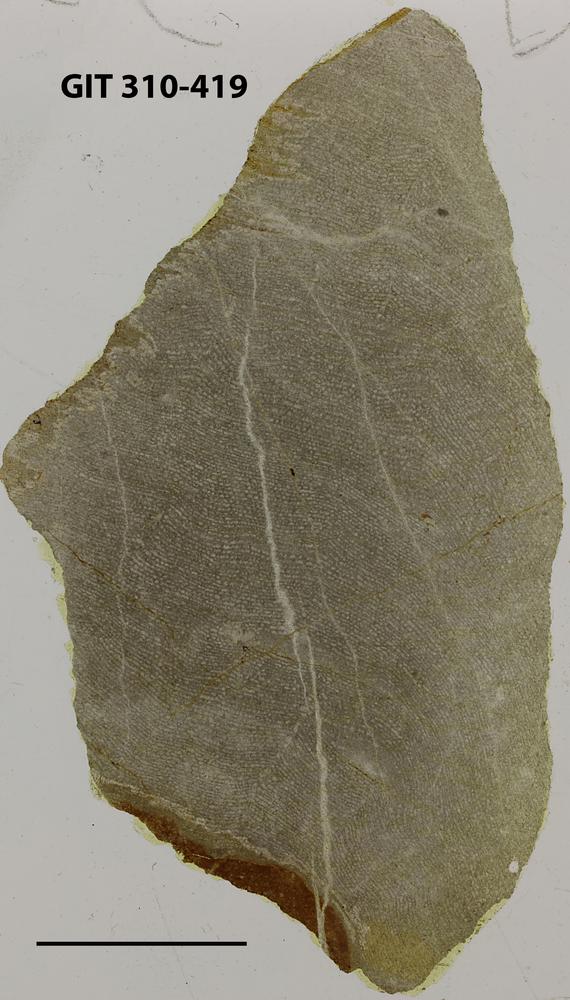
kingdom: Animalia
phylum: Porifera
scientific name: Porifera
